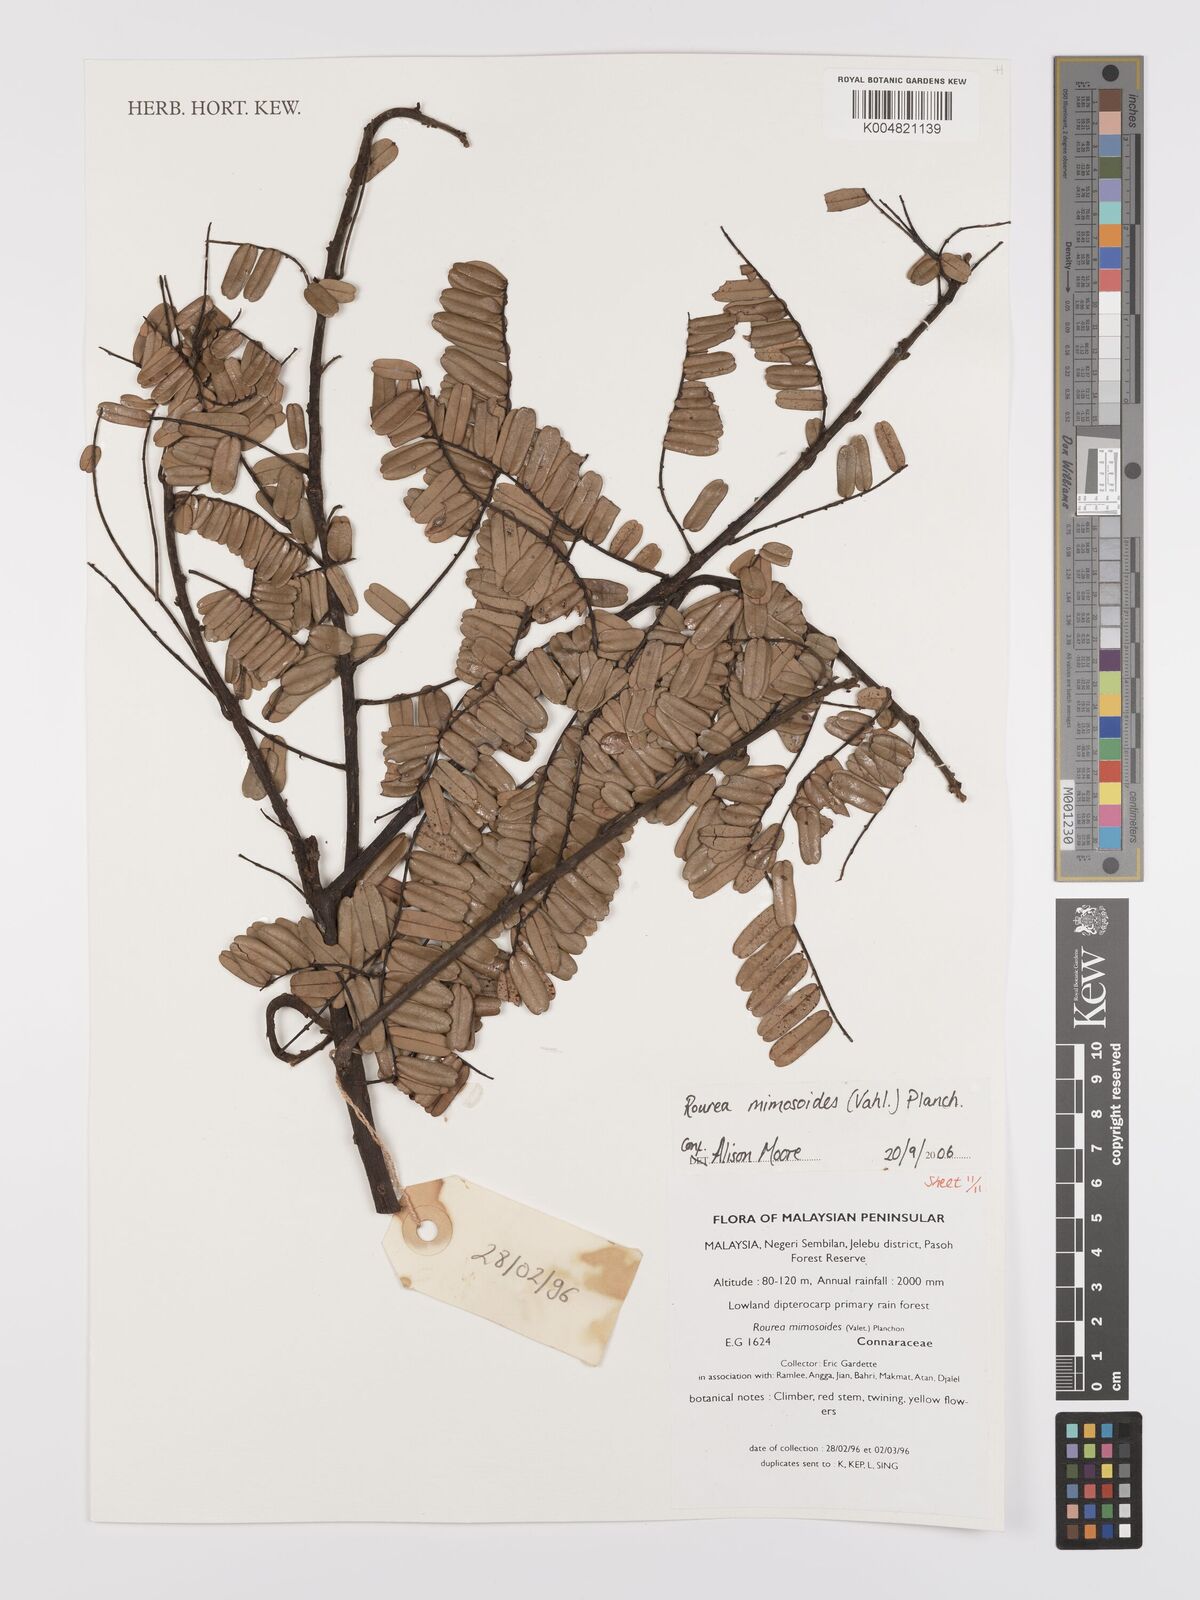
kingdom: Plantae
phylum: Tracheophyta
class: Magnoliopsida
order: Oxalidales
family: Connaraceae
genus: Rourea
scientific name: Rourea mimosoides
